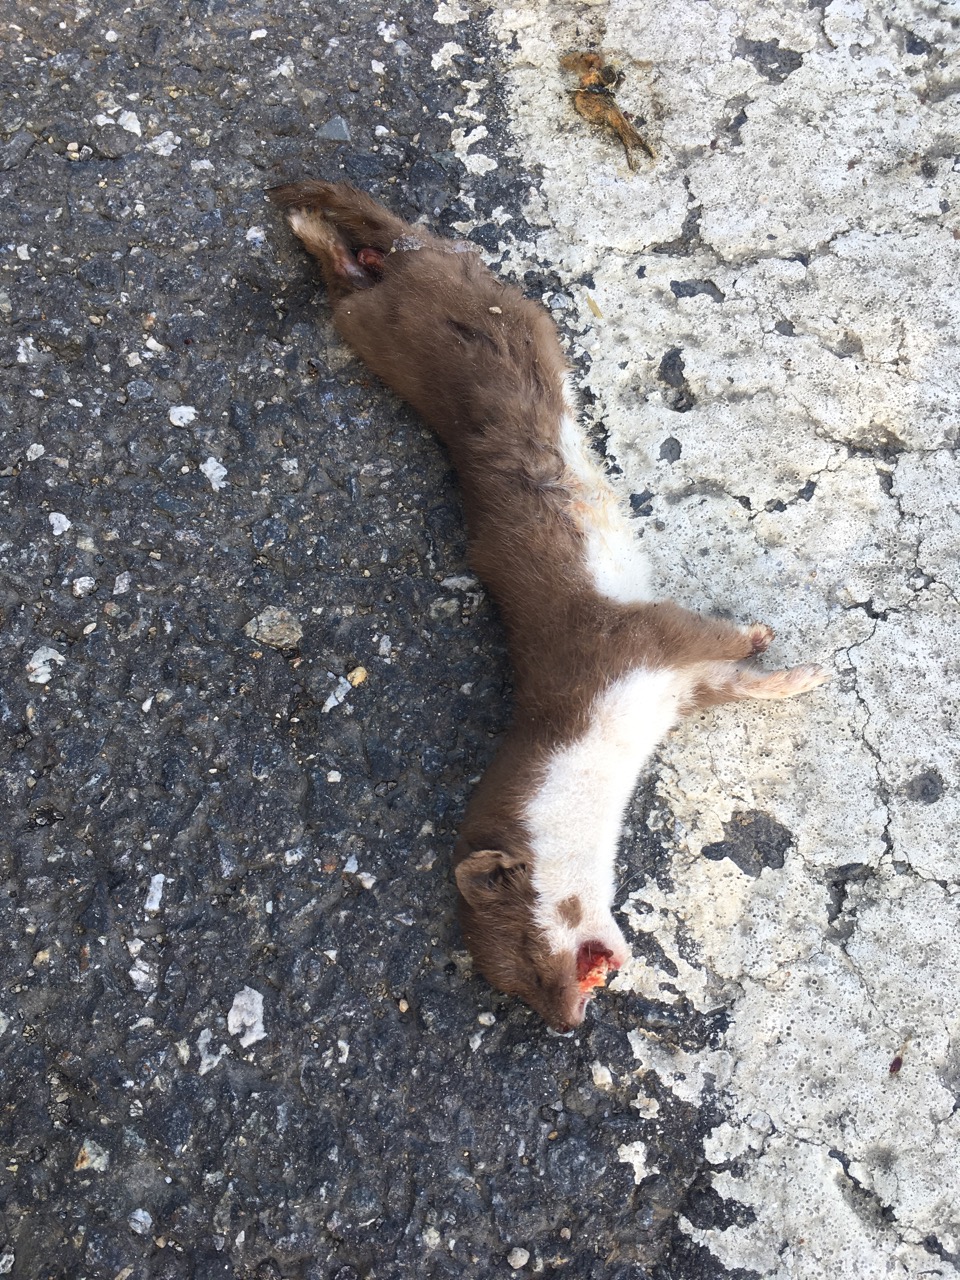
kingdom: Animalia
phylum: Chordata
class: Mammalia
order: Carnivora
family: Mustelidae
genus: Mustela
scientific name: Mustela nivalis
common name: Least weasel
